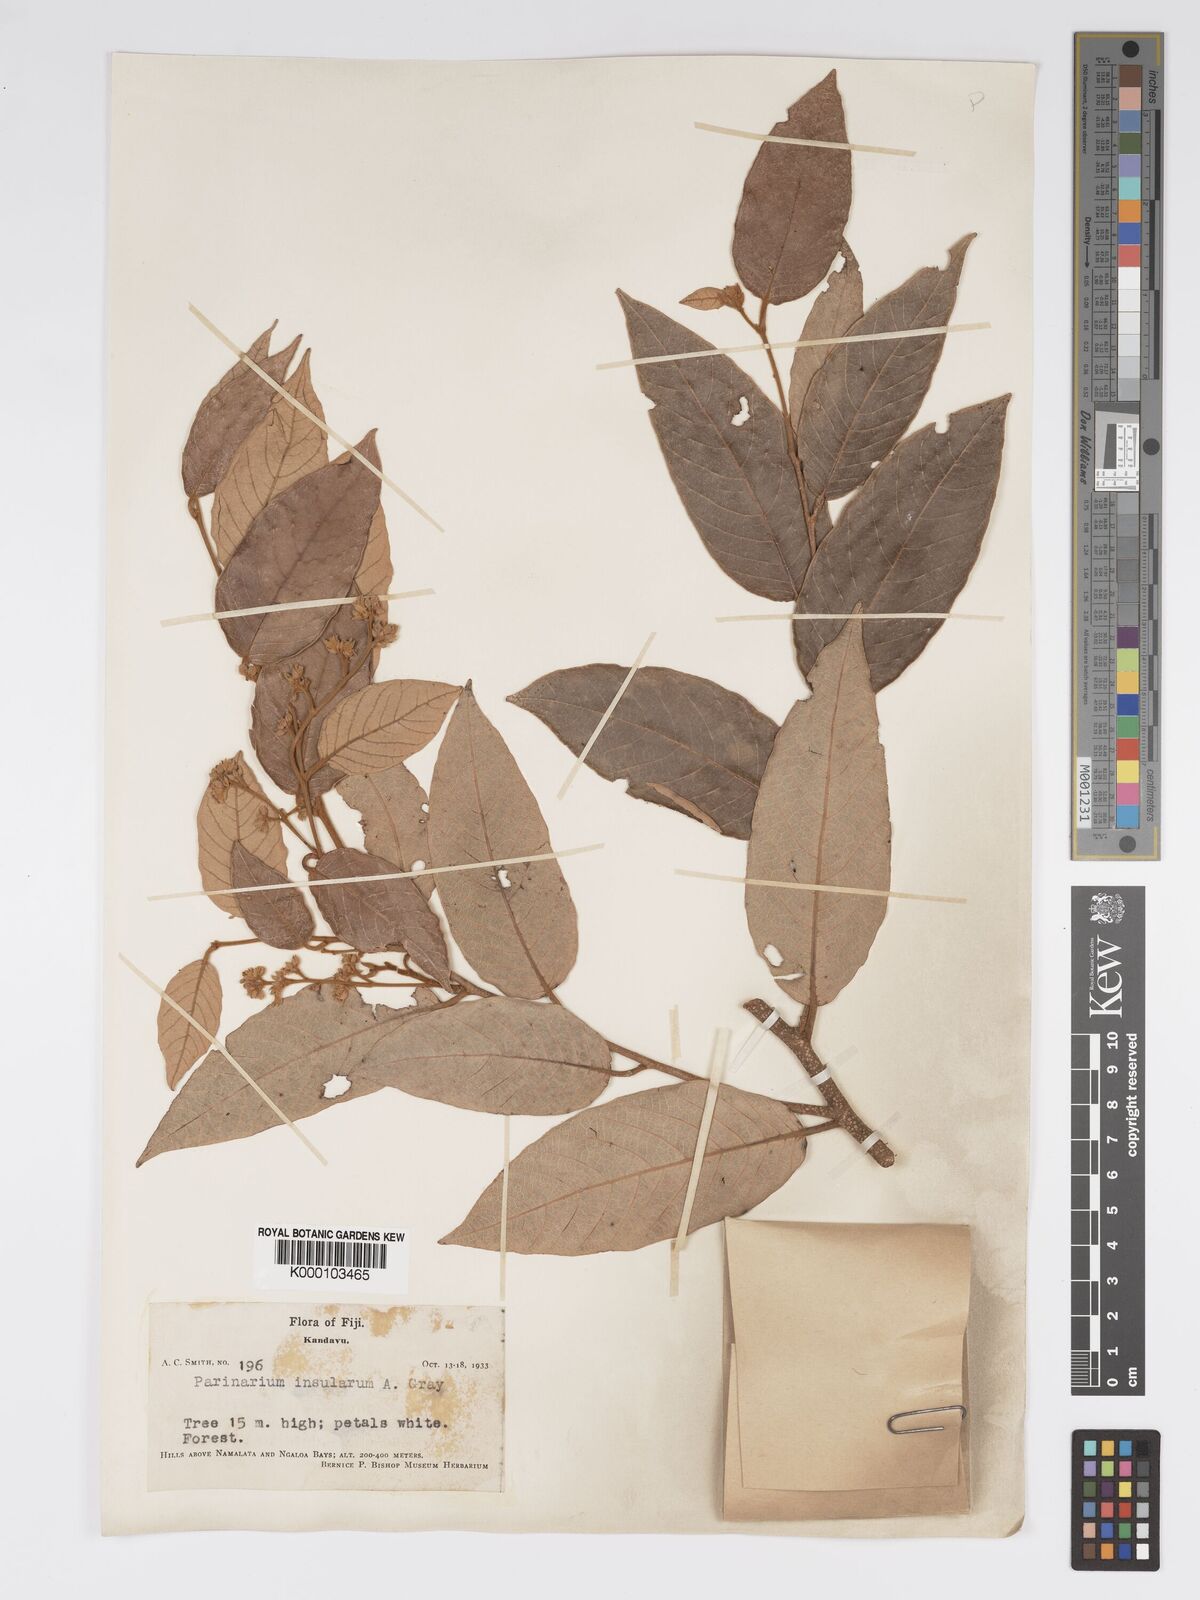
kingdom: Plantae
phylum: Tracheophyta
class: Magnoliopsida
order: Malpighiales
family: Chrysobalanaceae
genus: Parinari
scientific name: Parinari insularum
